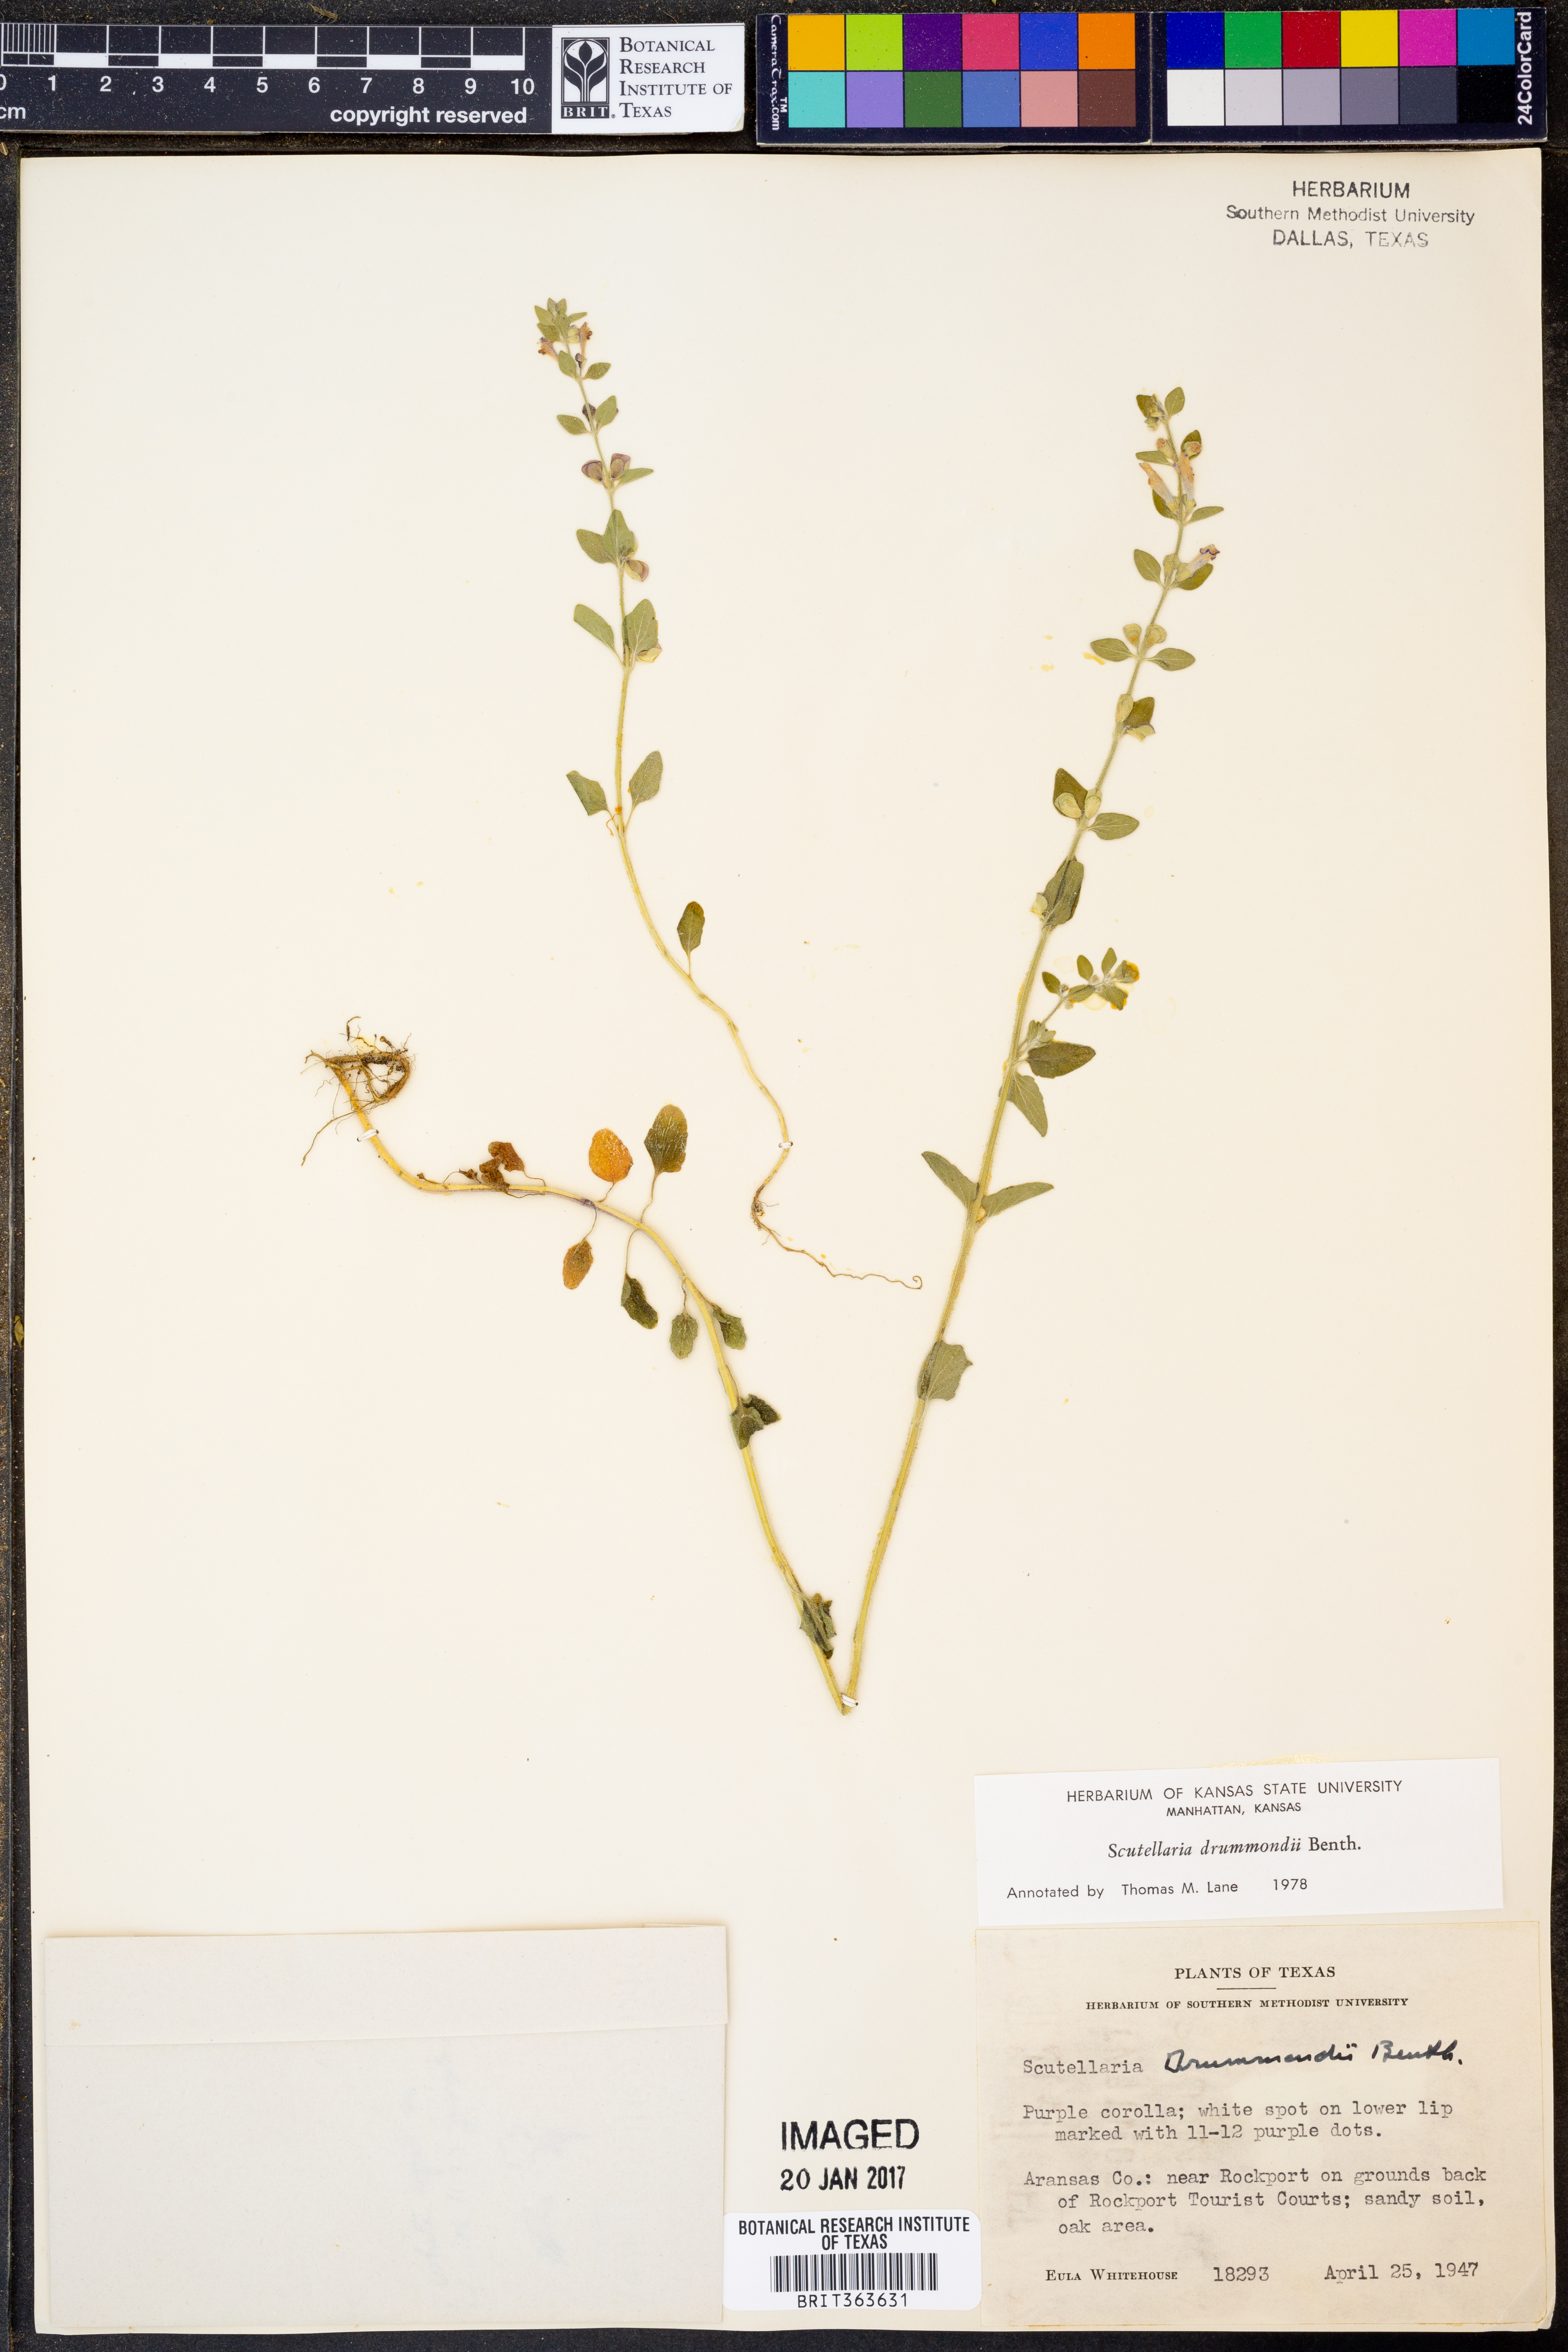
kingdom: Plantae
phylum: Tracheophyta
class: Magnoliopsida
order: Lamiales
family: Lamiaceae
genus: Scutellaria
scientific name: Scutellaria drummondii
